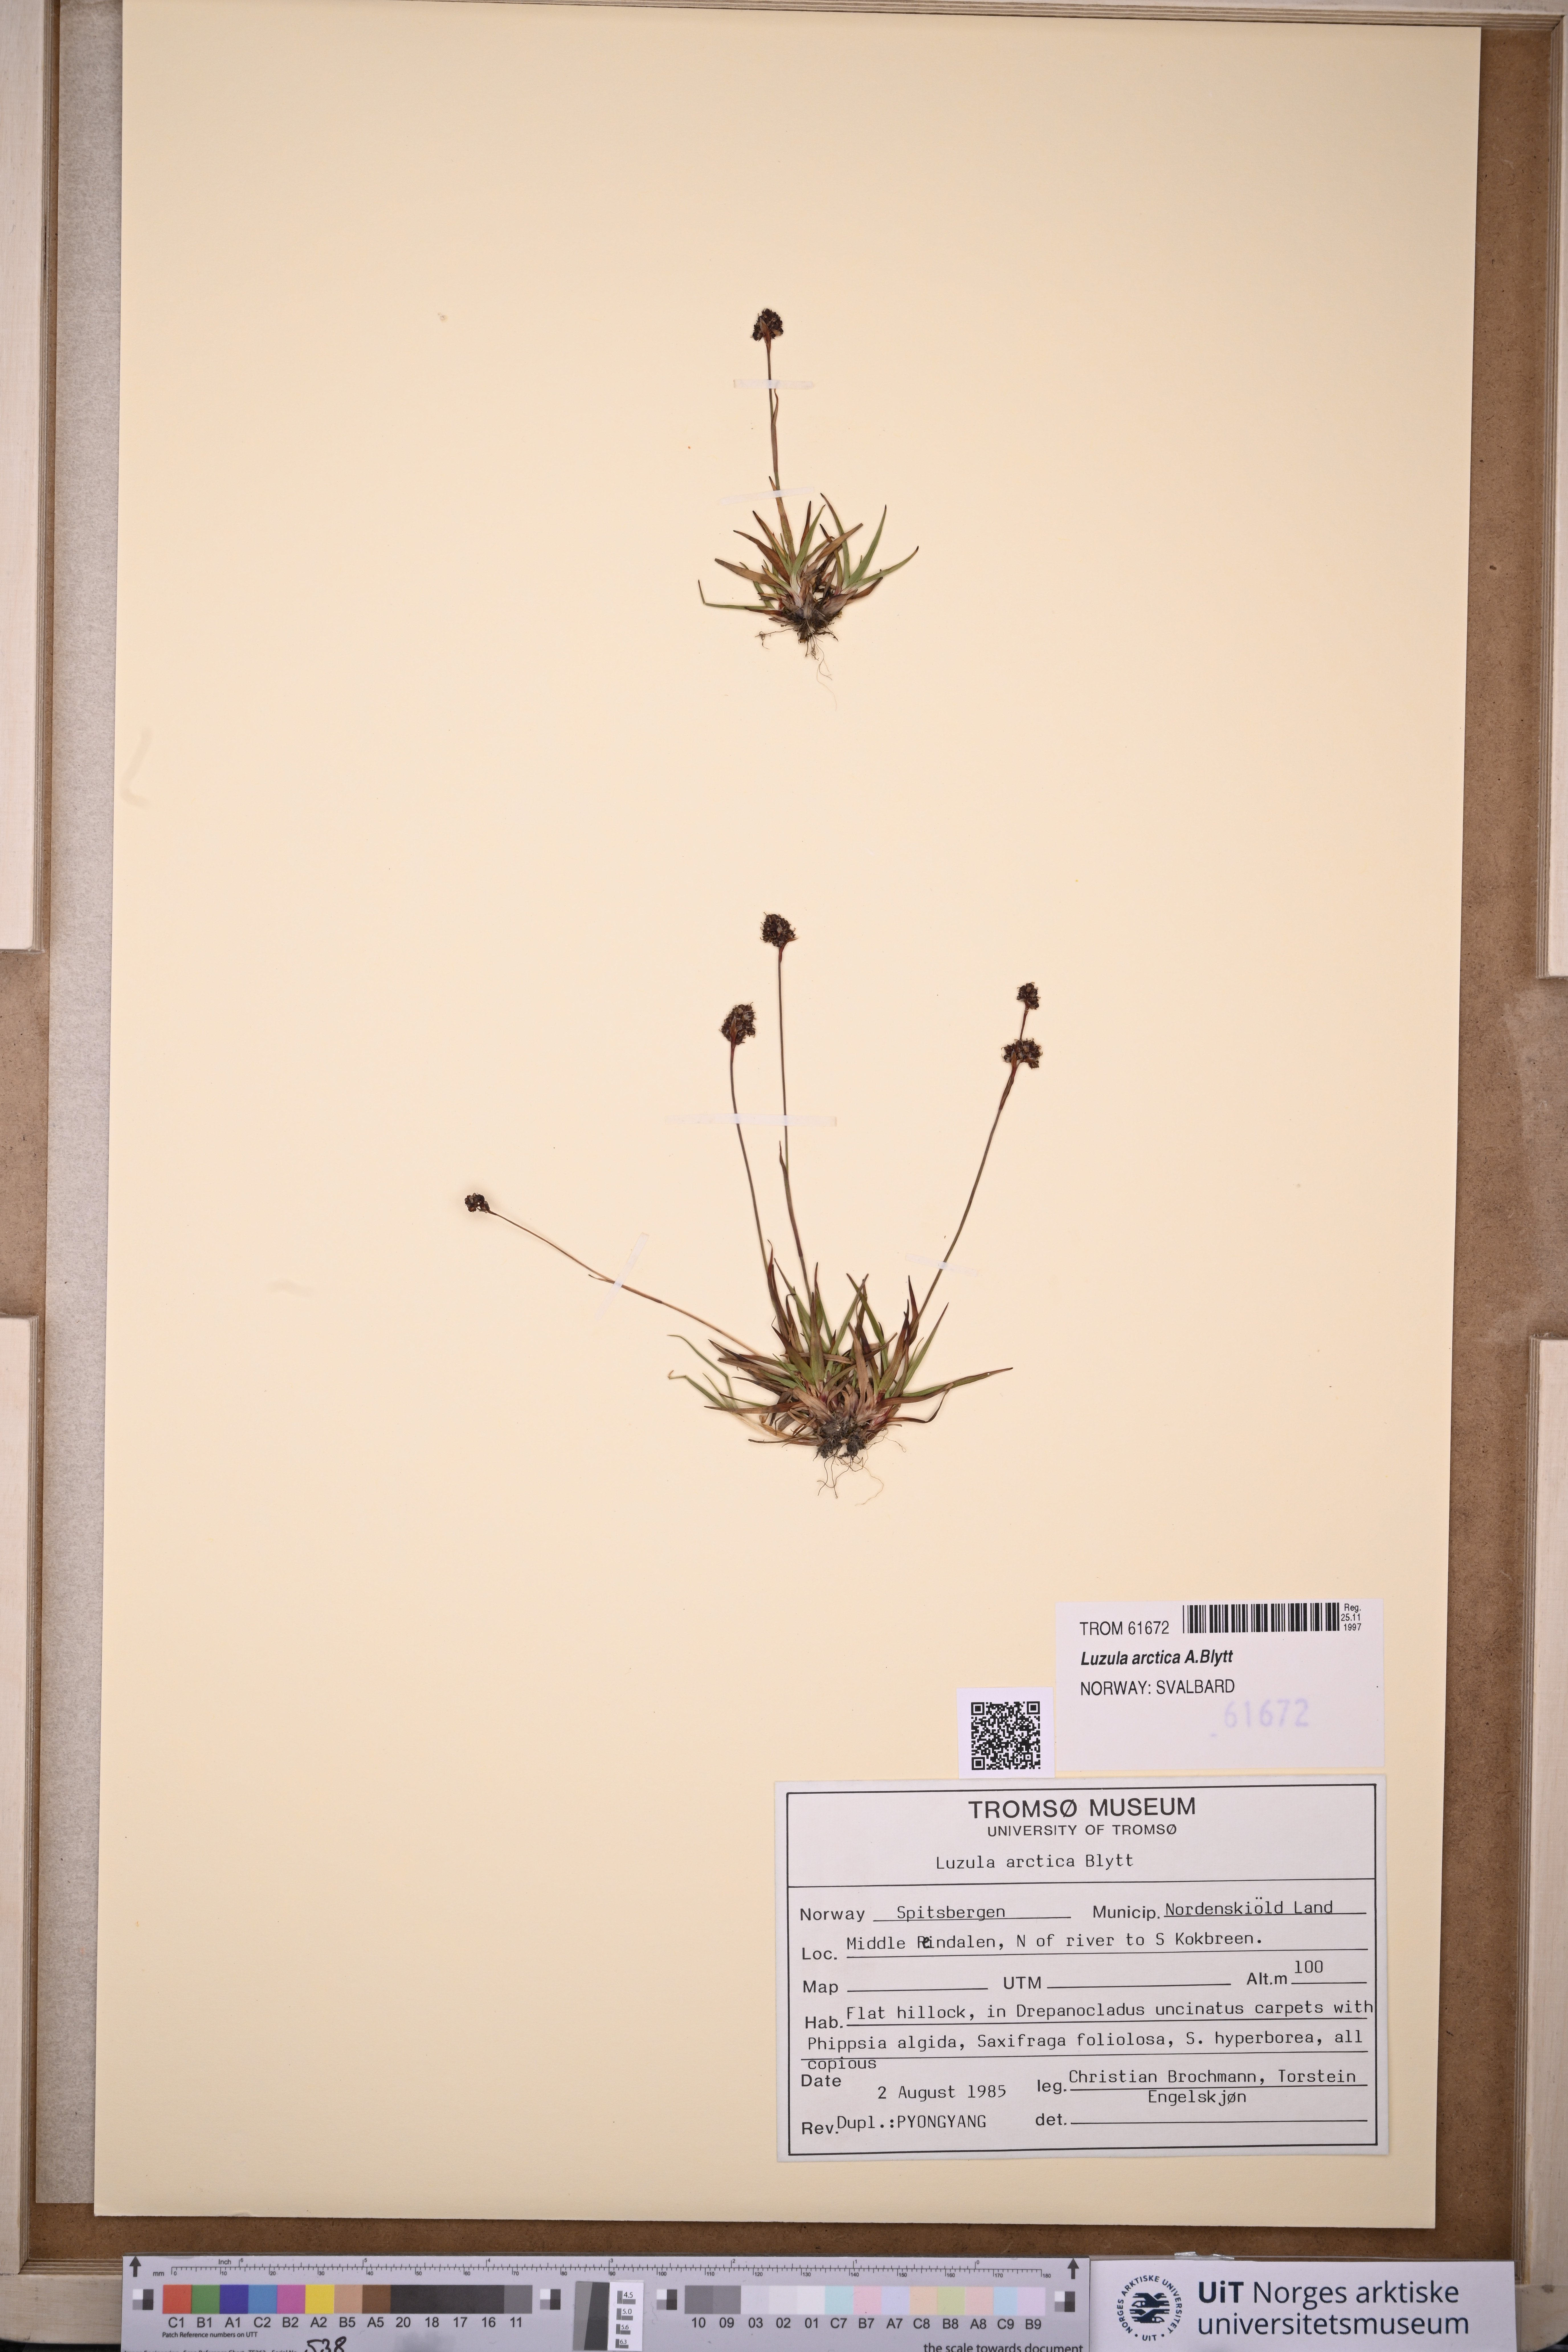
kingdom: Plantae
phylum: Tracheophyta
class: Liliopsida
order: Poales
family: Juncaceae
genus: Luzula
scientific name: Luzula nivalis
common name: Arctic woodrush
